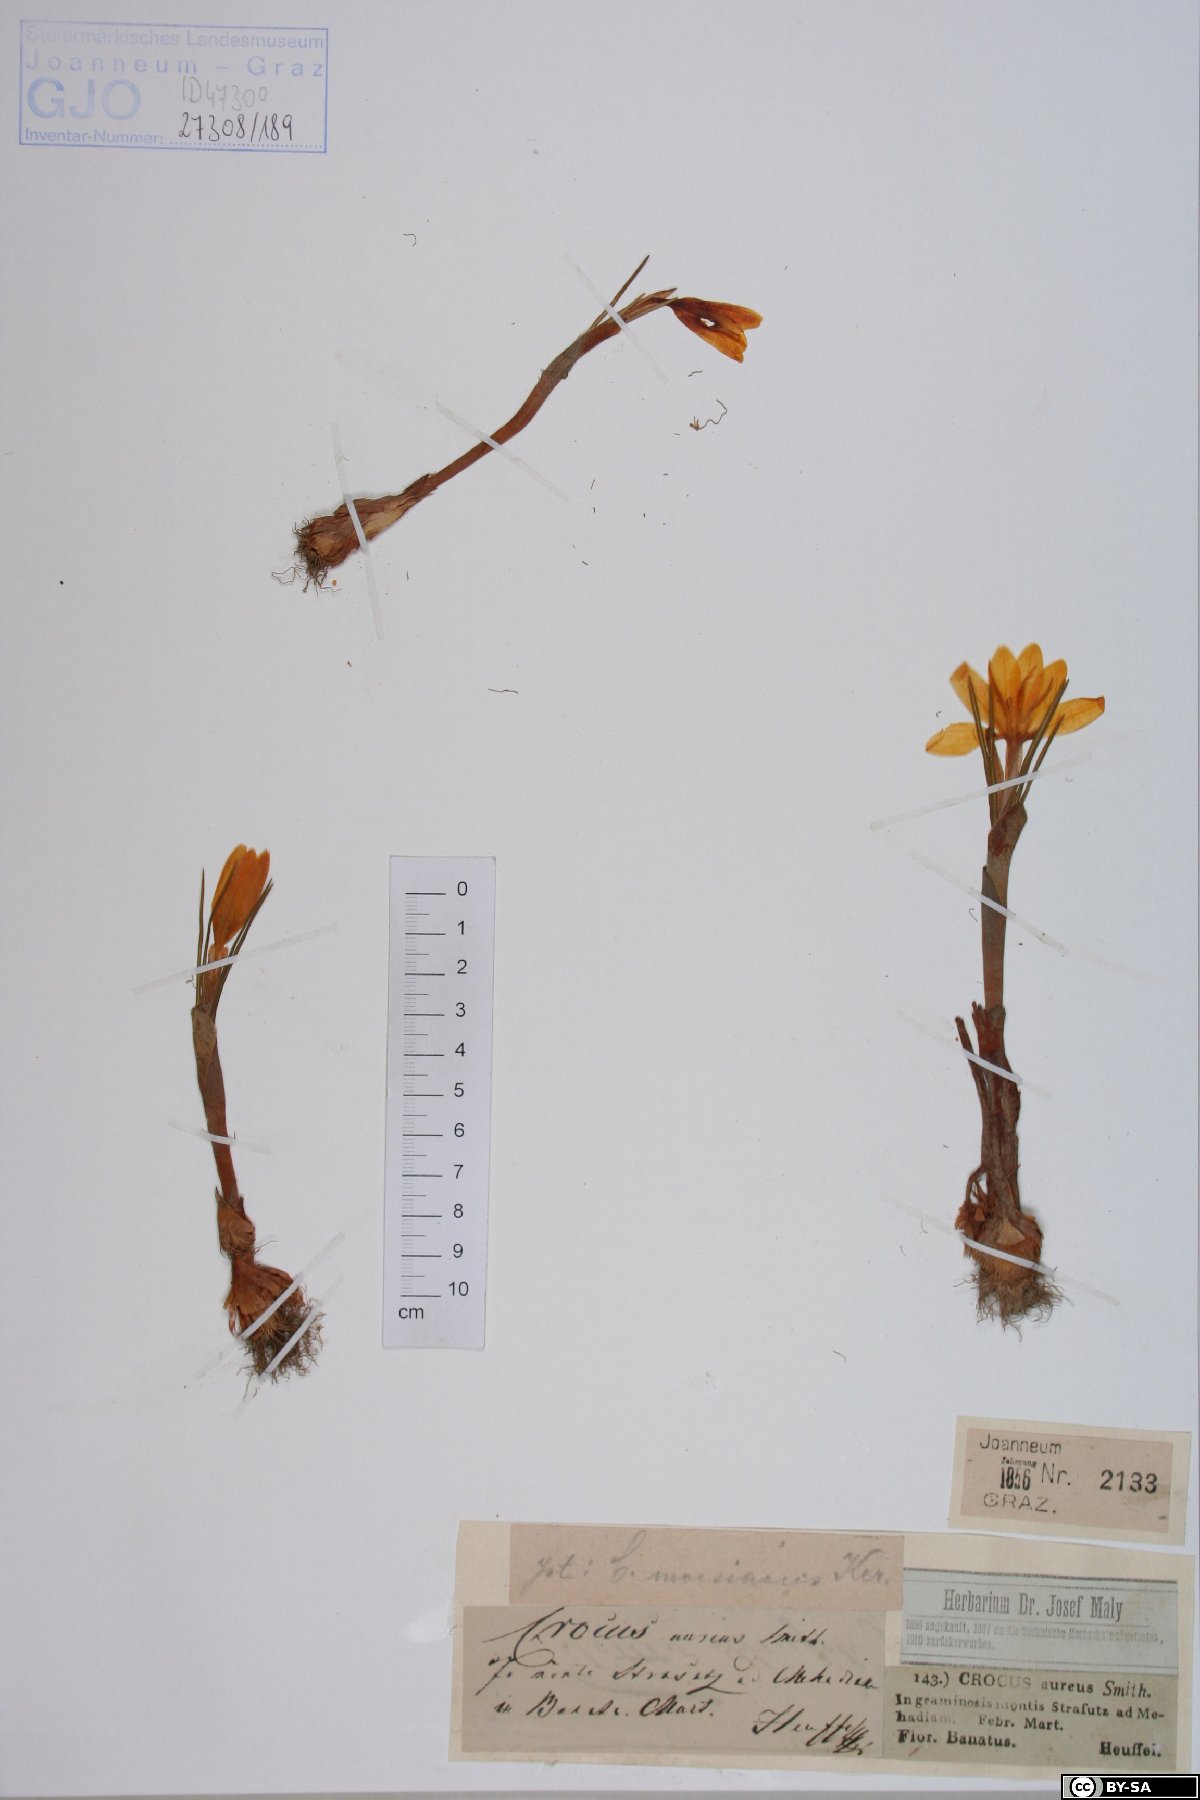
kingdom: Plantae
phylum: Tracheophyta
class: Liliopsida
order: Asparagales
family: Iridaceae
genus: Crocus
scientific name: Crocus flavus
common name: Yellow crocus
